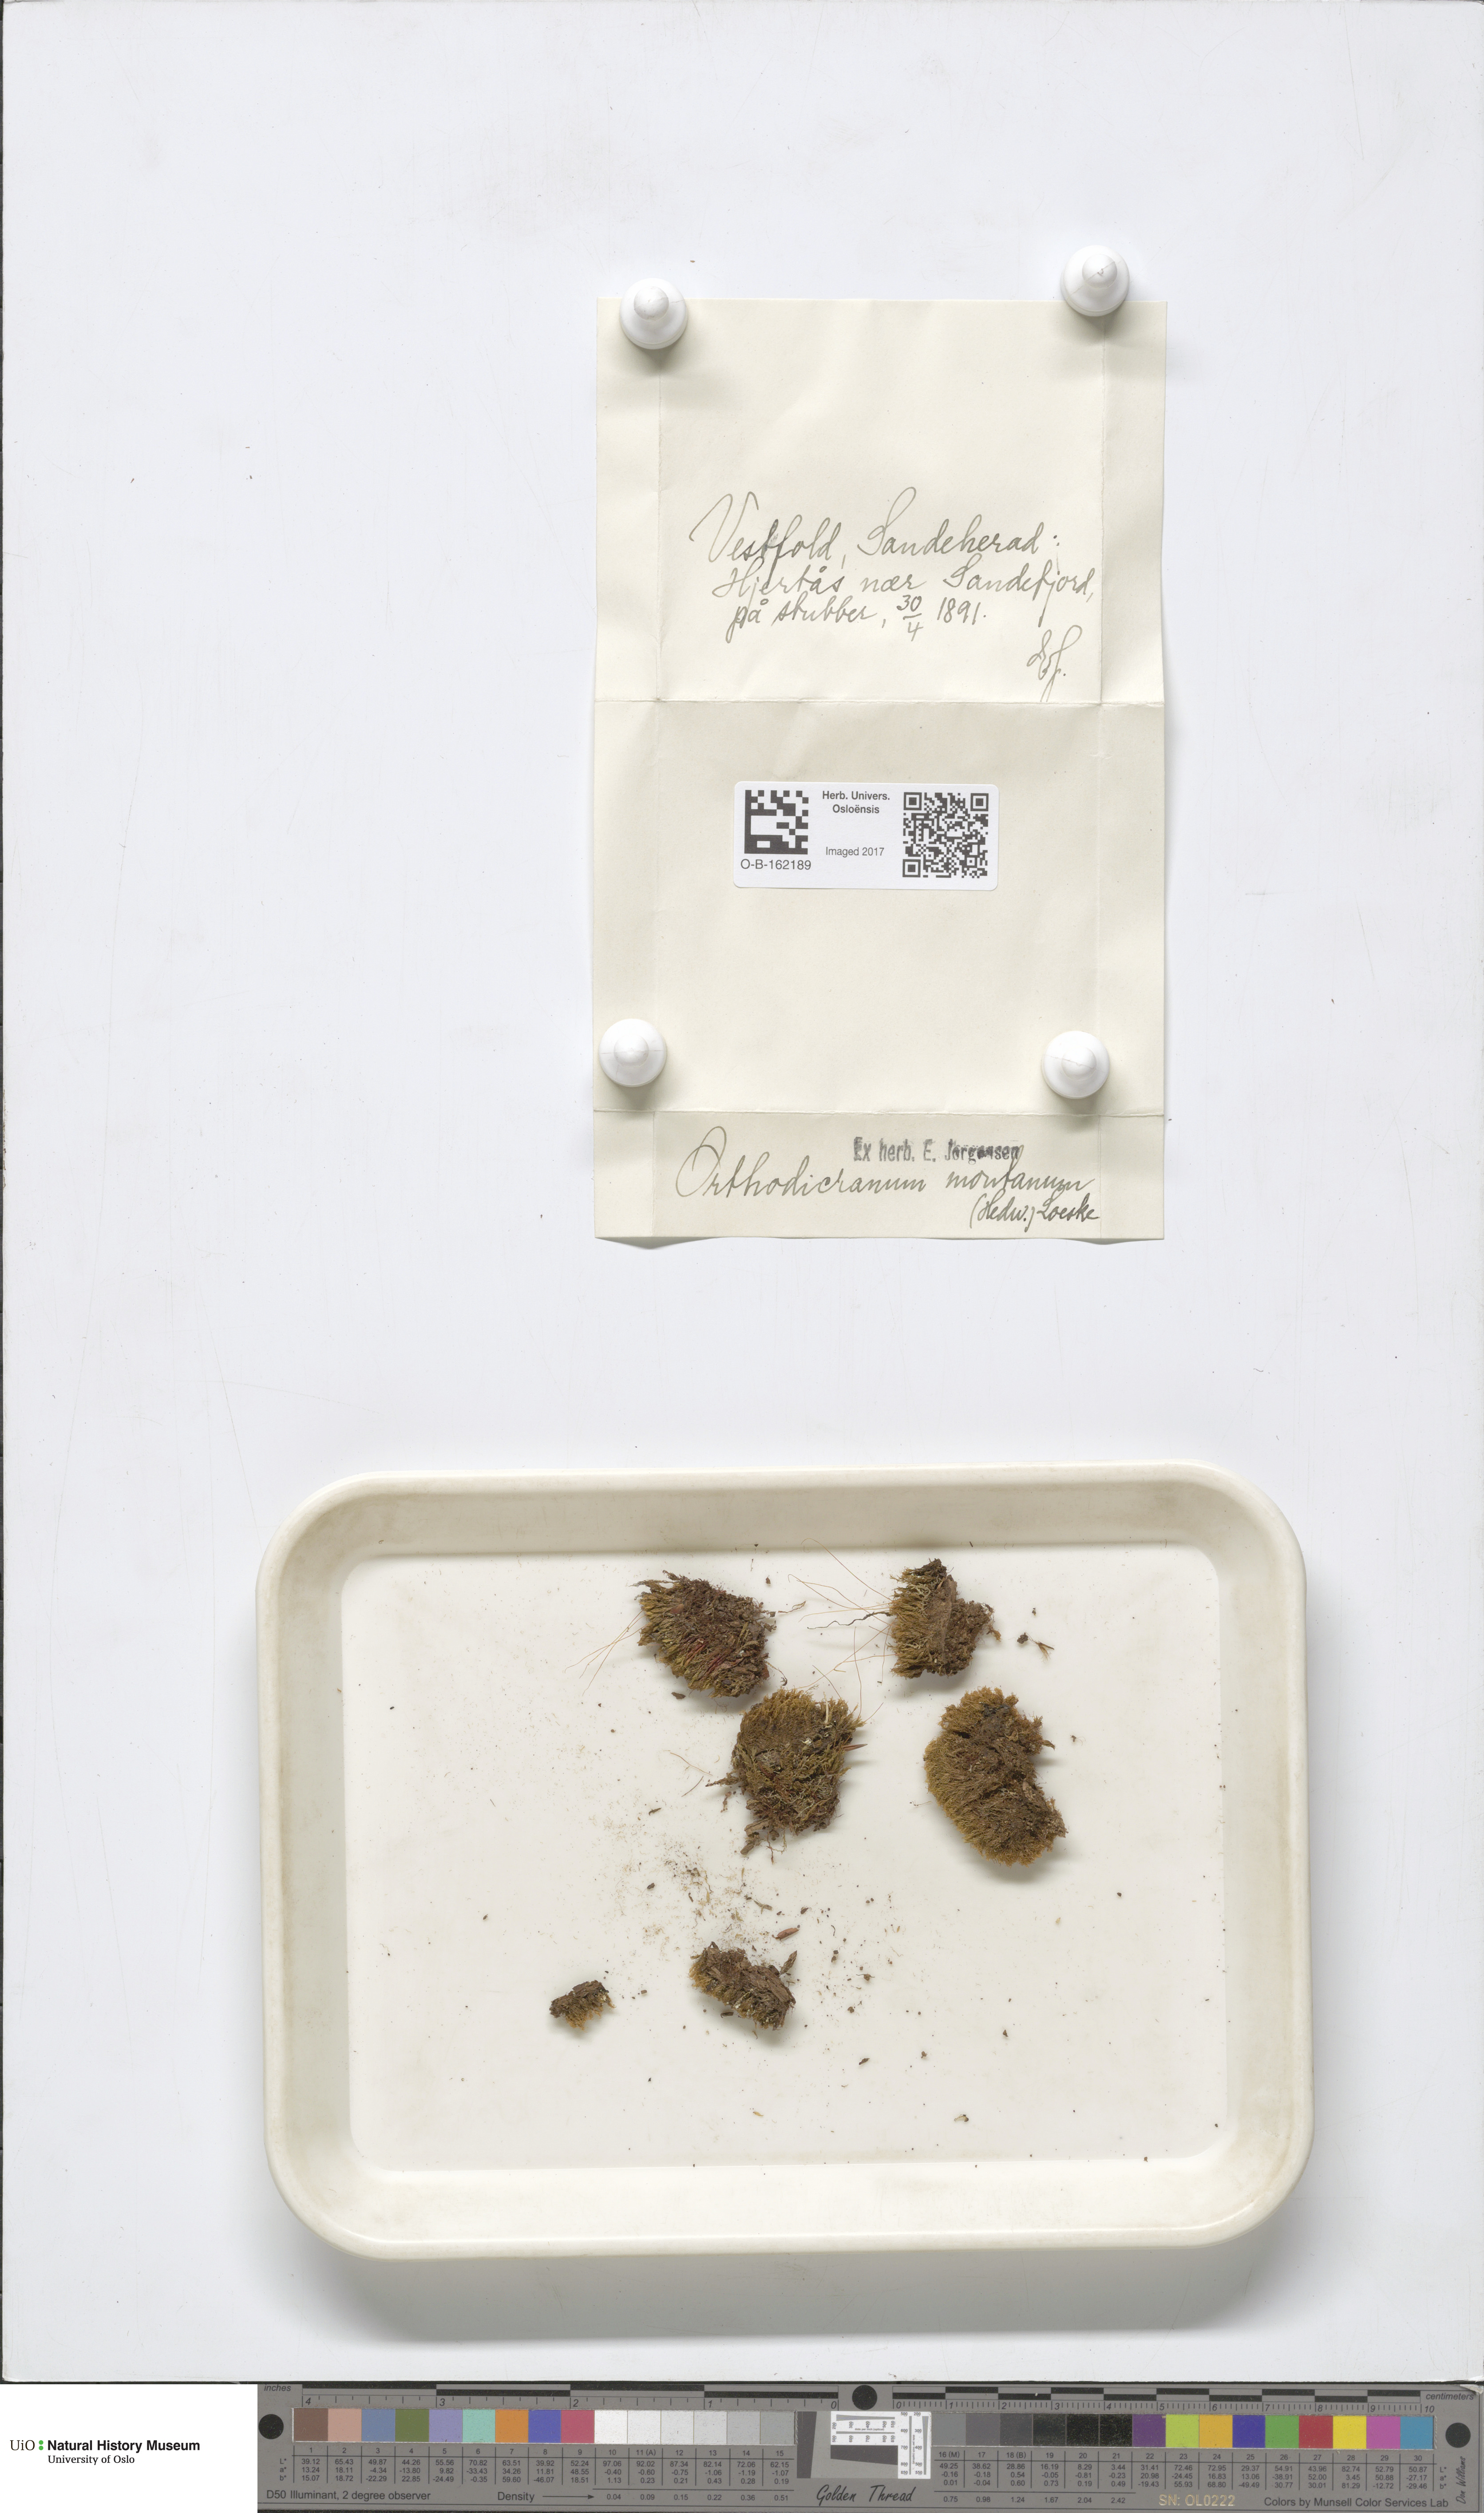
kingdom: Plantae
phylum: Bryophyta
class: Bryopsida
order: Dicranales
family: Dicranaceae
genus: Orthodicranum
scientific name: Orthodicranum montanum
